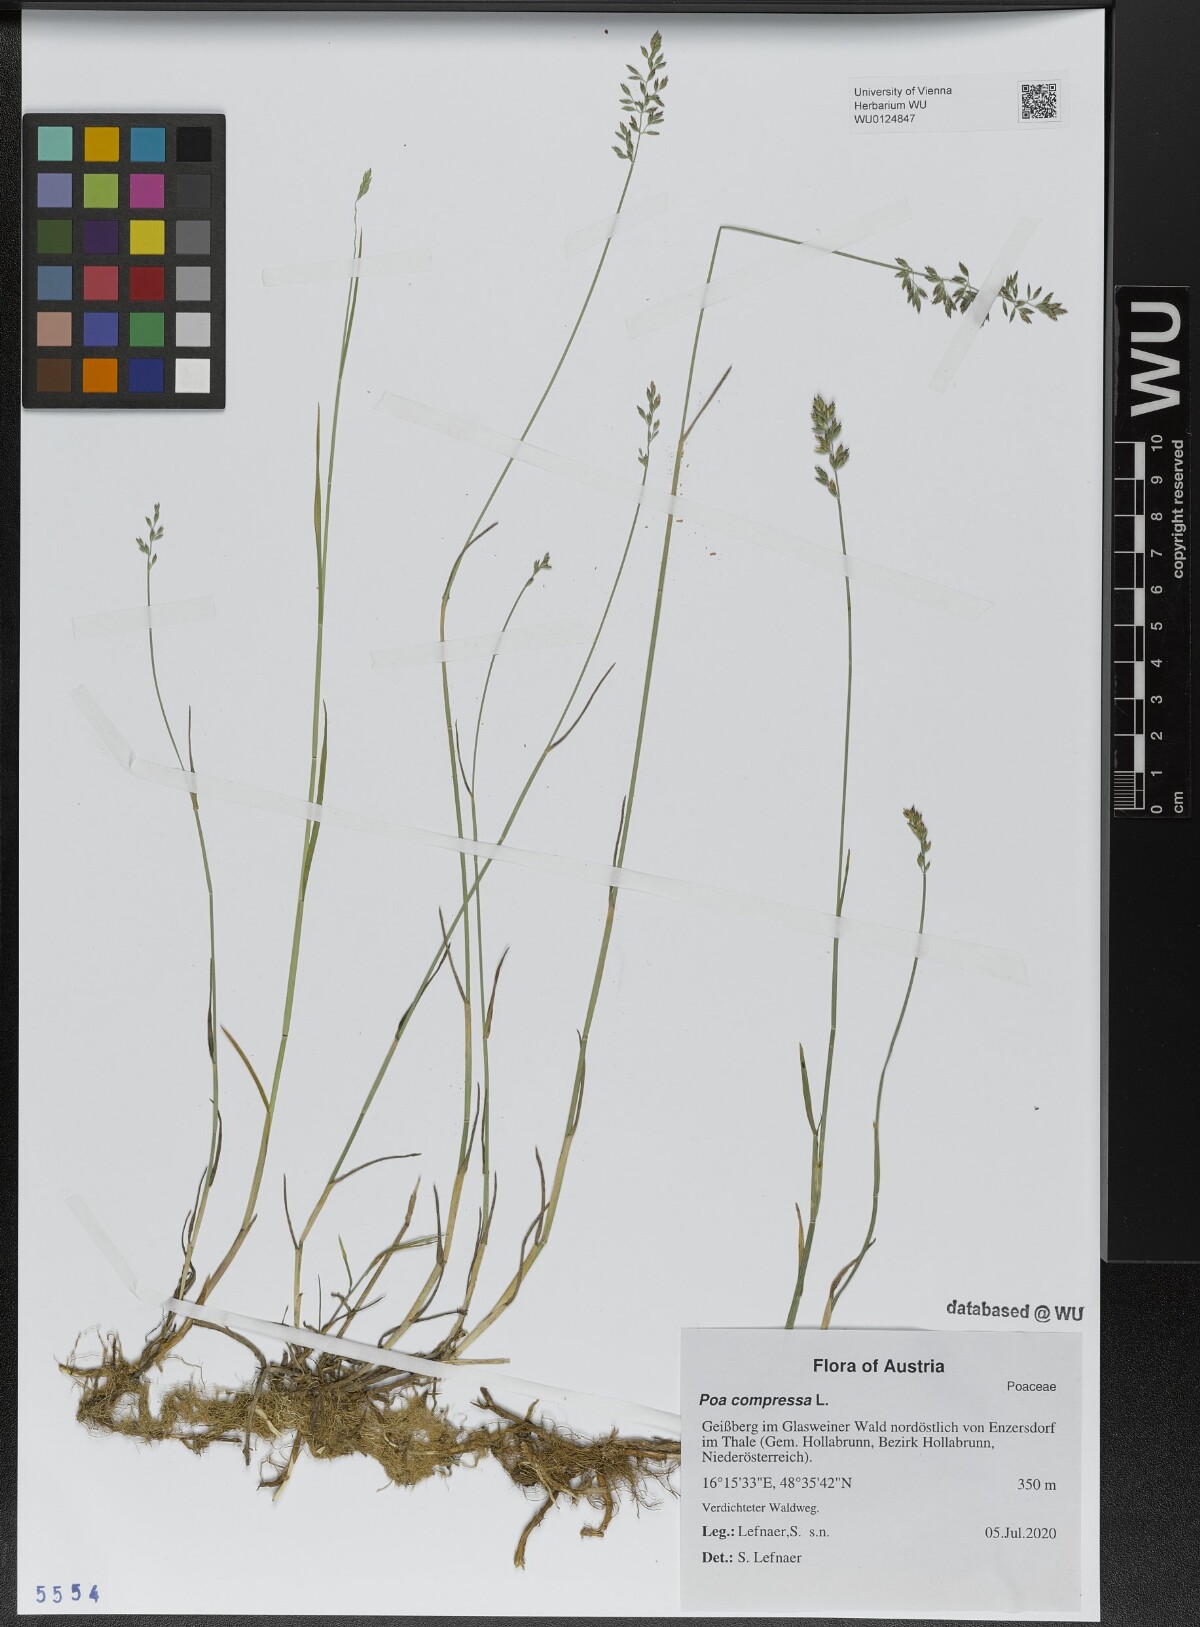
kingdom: Plantae
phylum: Tracheophyta
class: Liliopsida
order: Poales
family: Poaceae
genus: Poa
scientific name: Poa compressa
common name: Canada bluegrass
